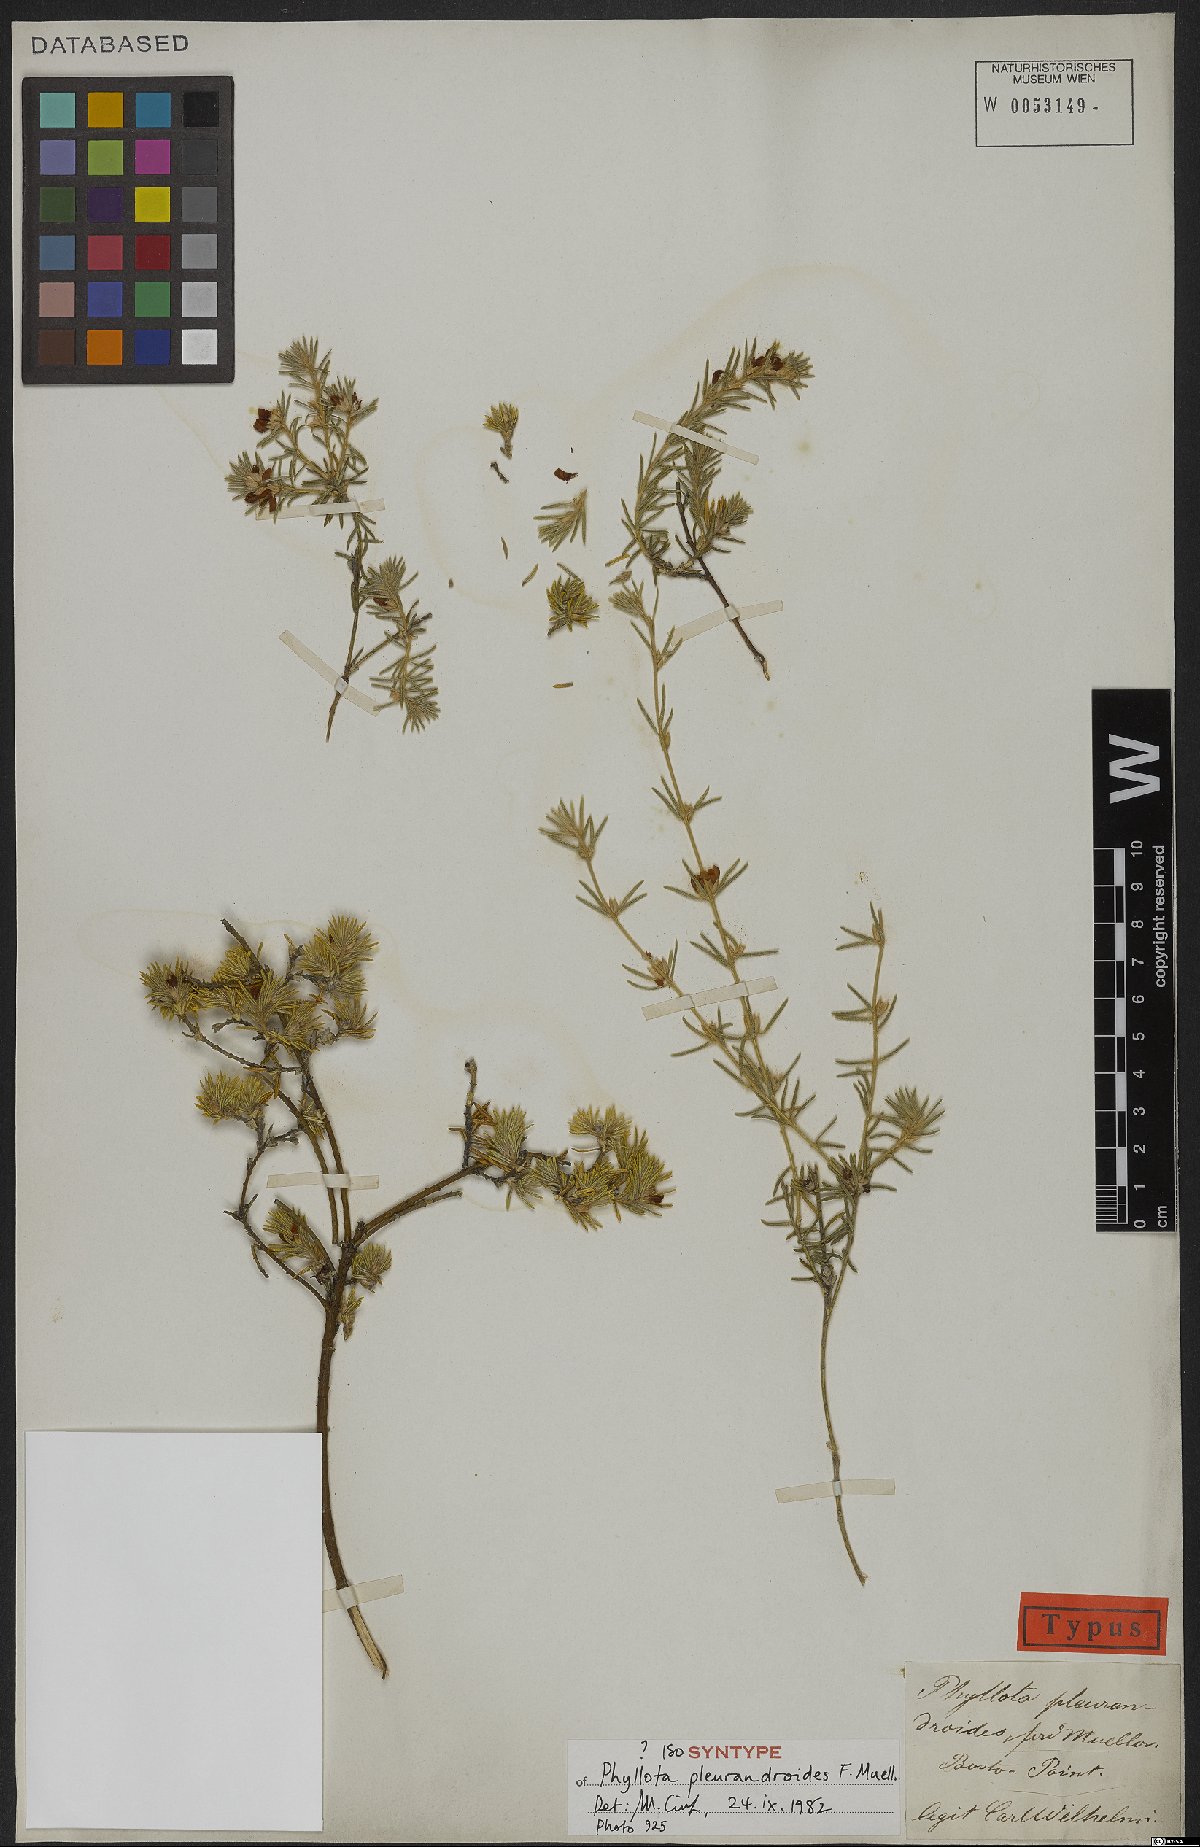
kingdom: Plantae
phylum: Tracheophyta
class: Magnoliopsida
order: Fabales
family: Fabaceae
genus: Phyllota
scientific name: Phyllota pleurandroides
